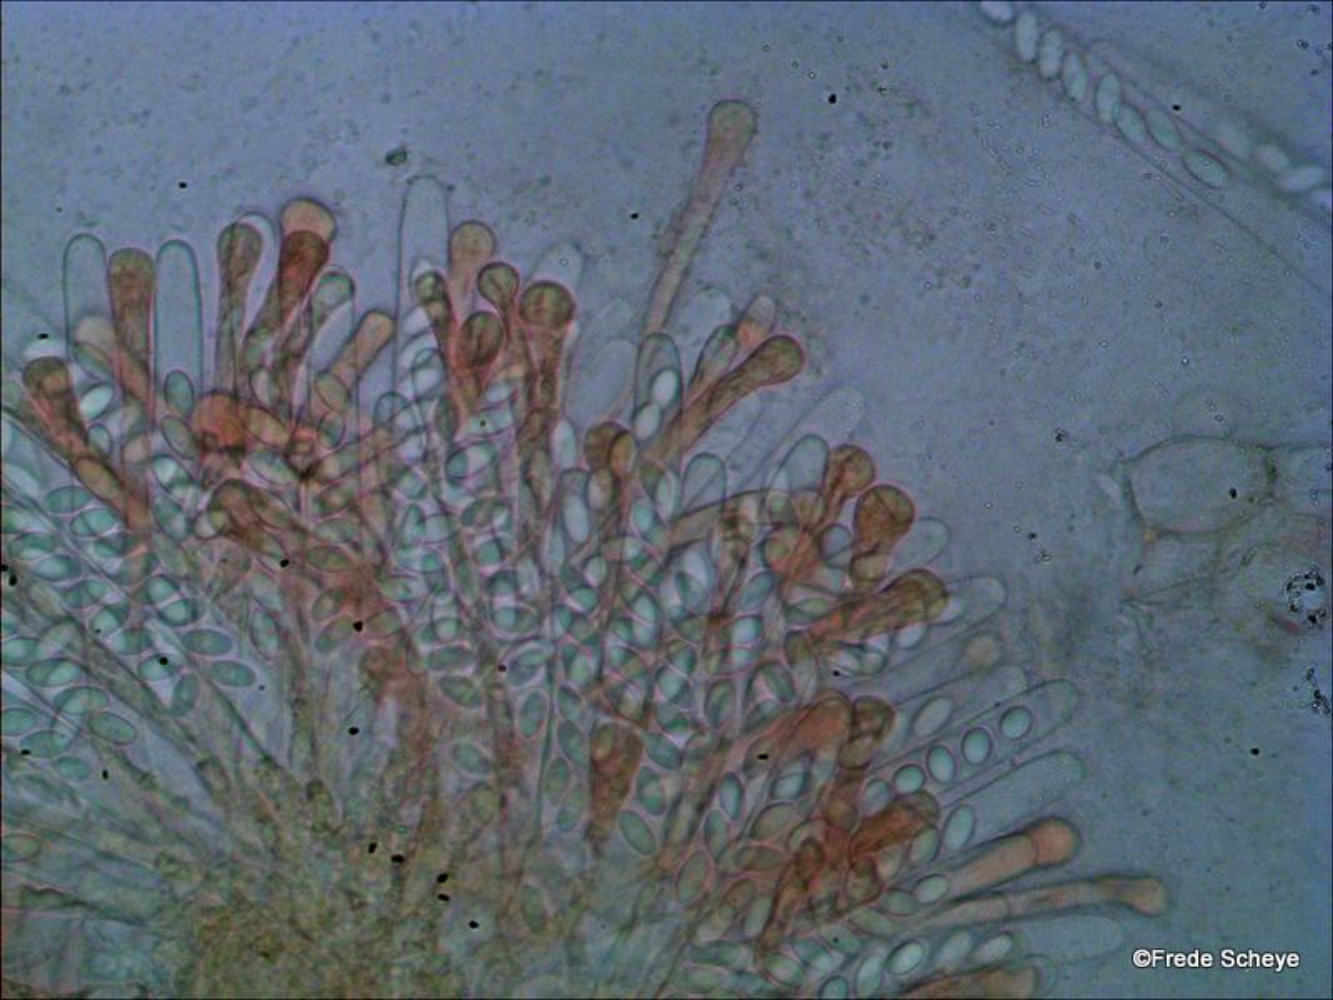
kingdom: Fungi
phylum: Ascomycota
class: Pezizomycetes
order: Pezizales
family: Pyronemataceae
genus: Cheilymenia
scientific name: Cheilymenia granulata
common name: møgbæger
